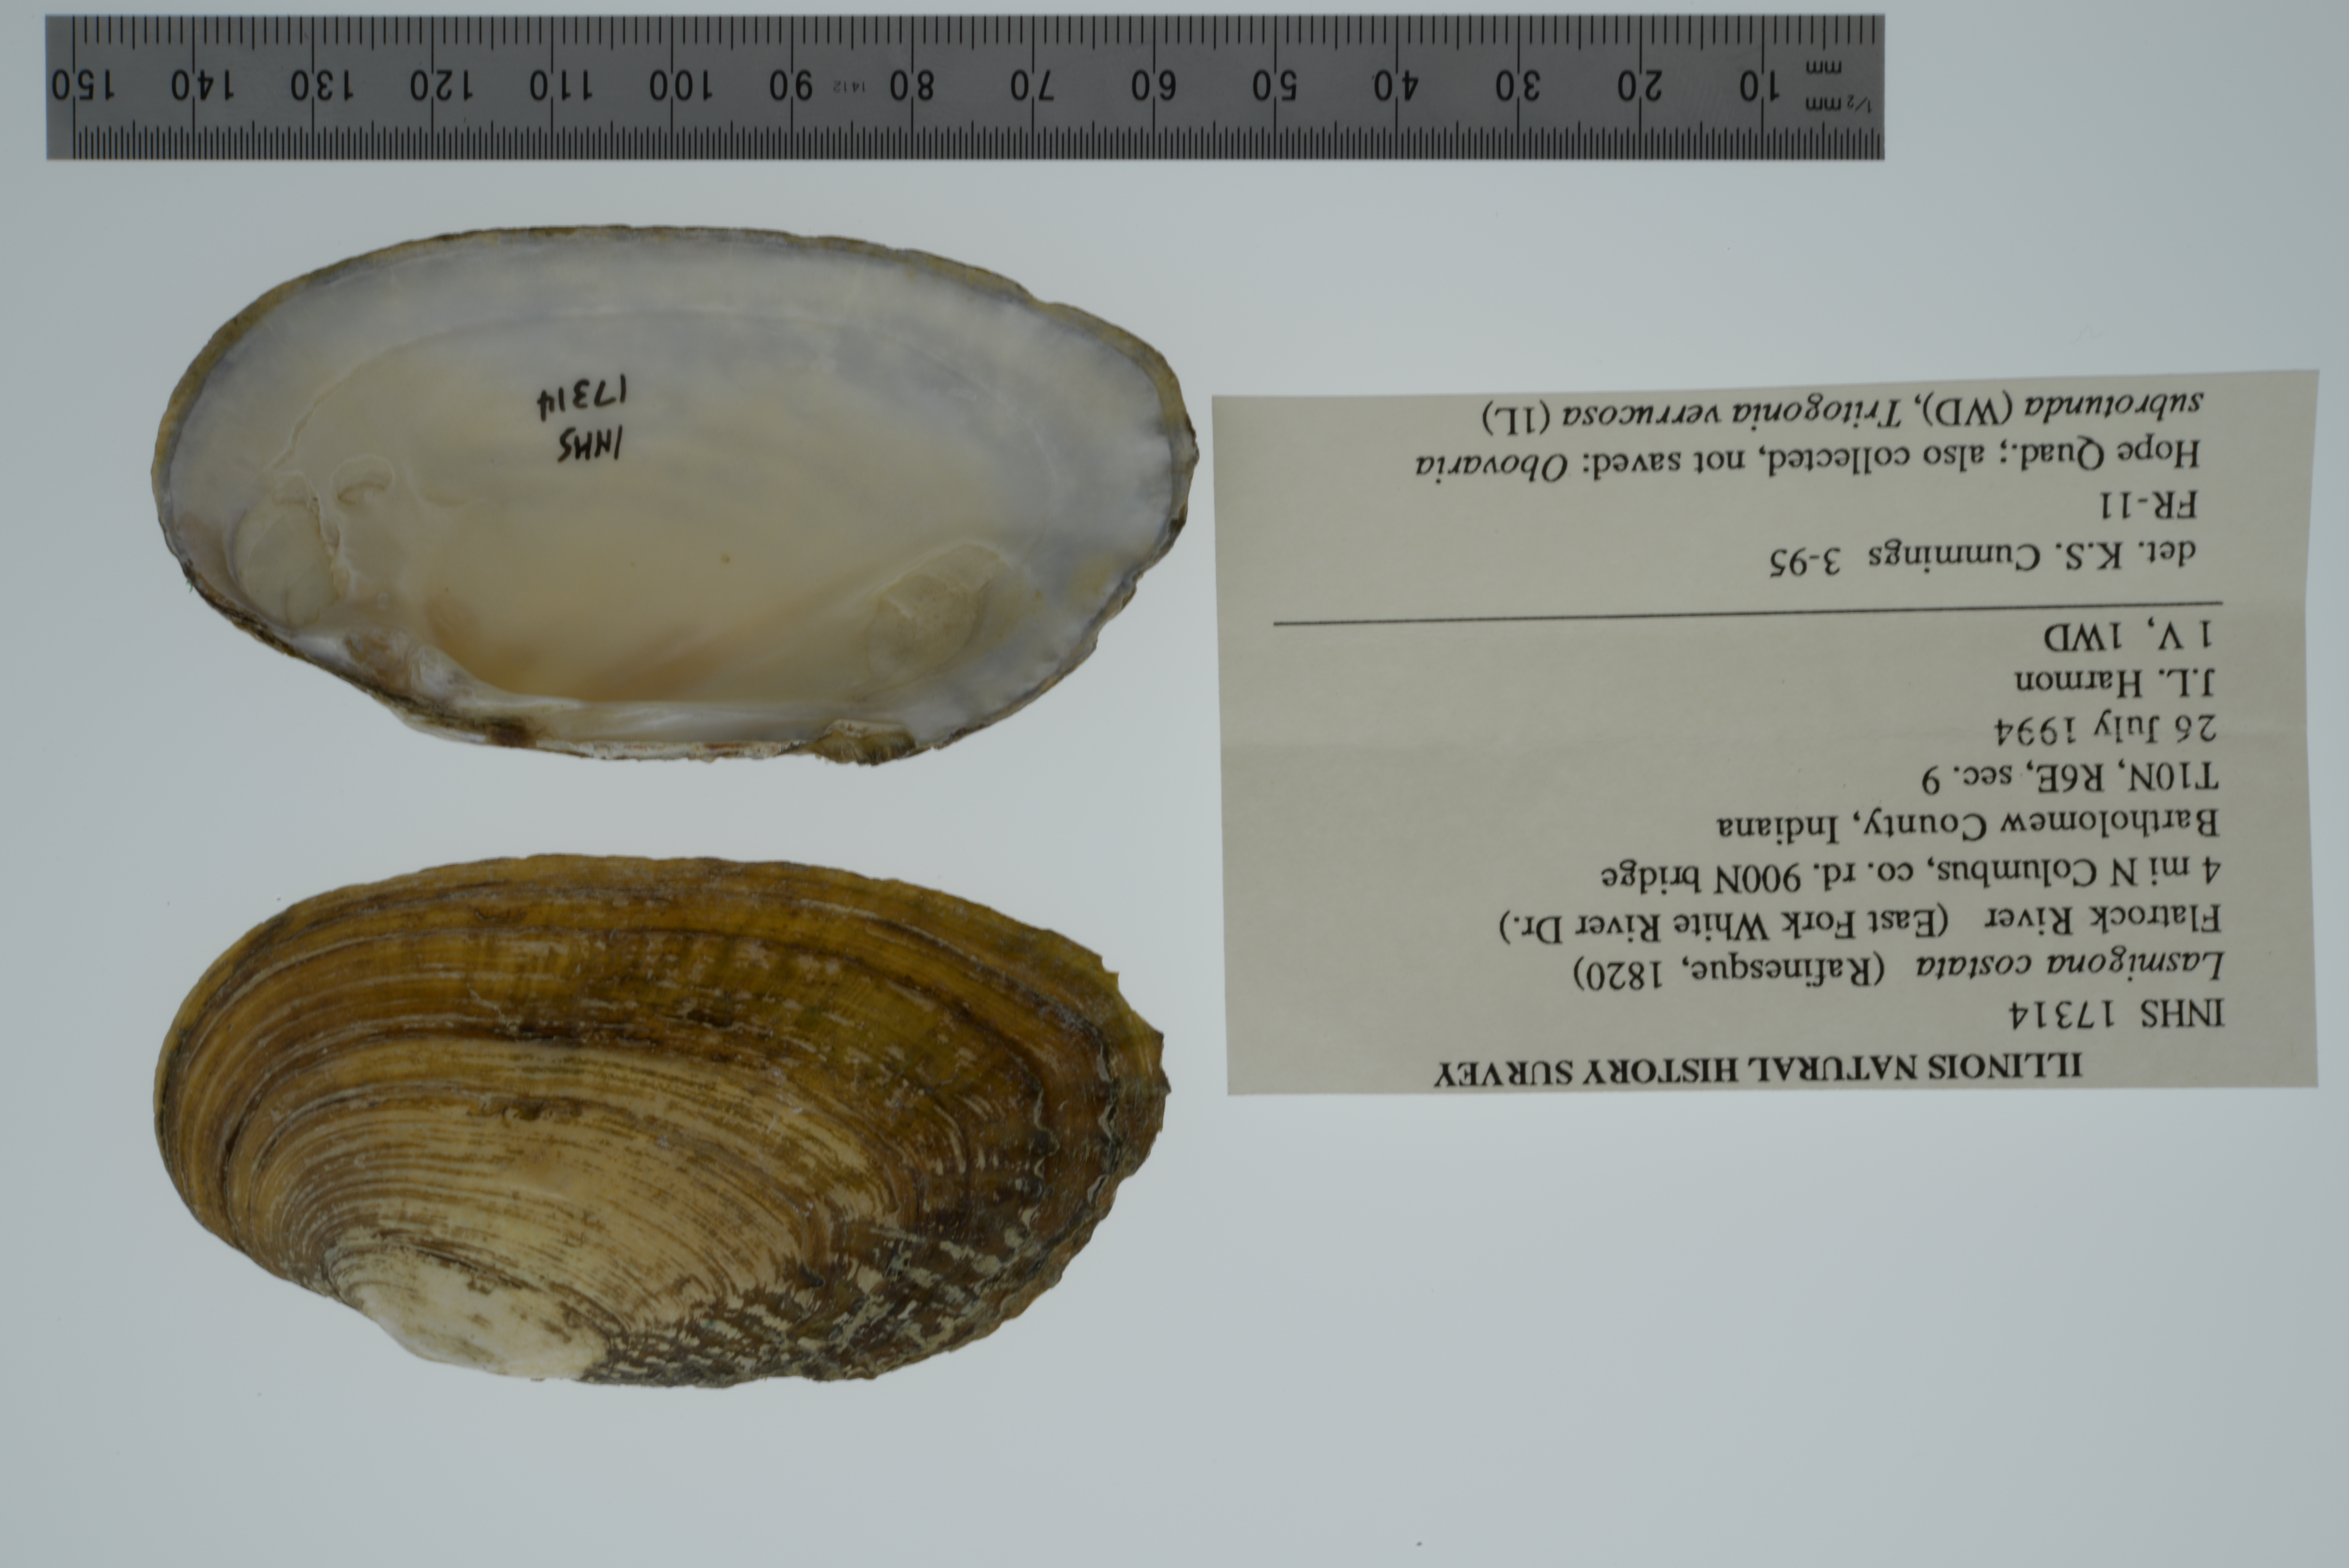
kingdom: Animalia
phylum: Mollusca
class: Bivalvia
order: Unionida
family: Unionidae
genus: Lasmigona
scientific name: Lasmigona costata
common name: Flutedshell
